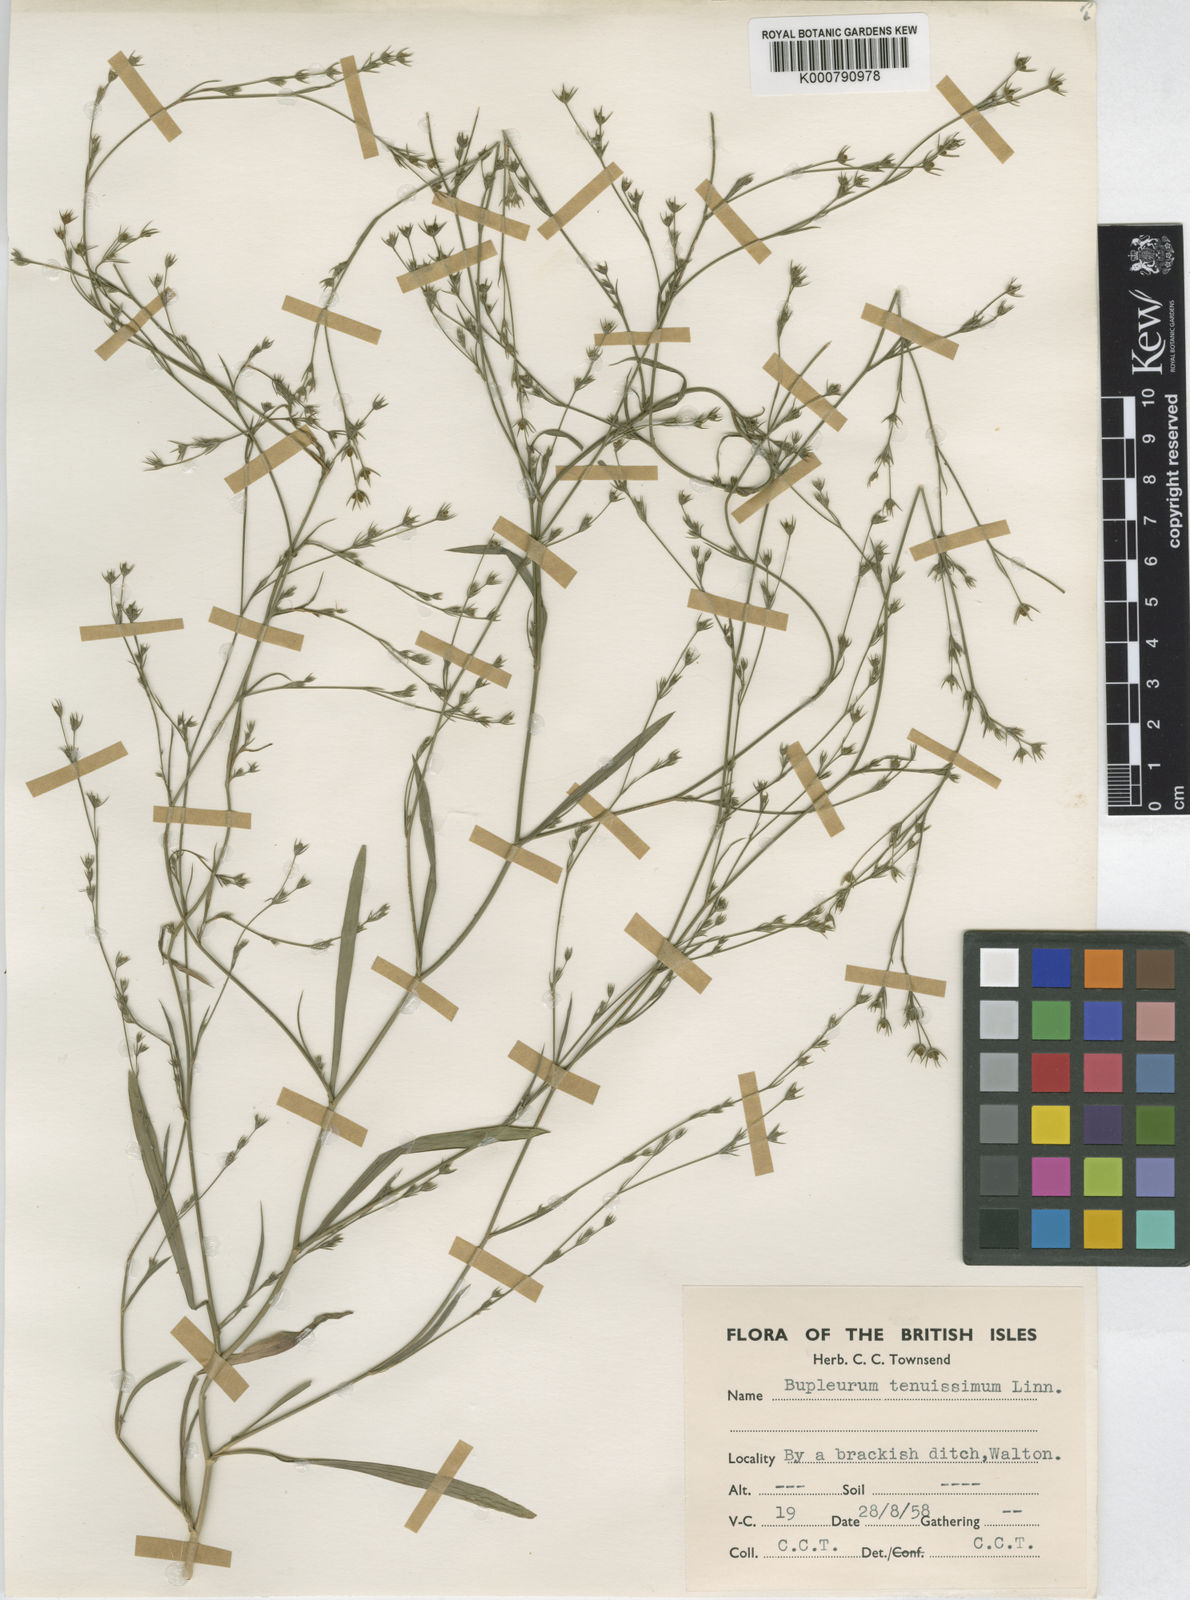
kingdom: Plantae
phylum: Tracheophyta
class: Magnoliopsida
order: Apiales
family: Apiaceae
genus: Bupleurum
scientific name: Bupleurum tenuissimum
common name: Slender hare's-ear
